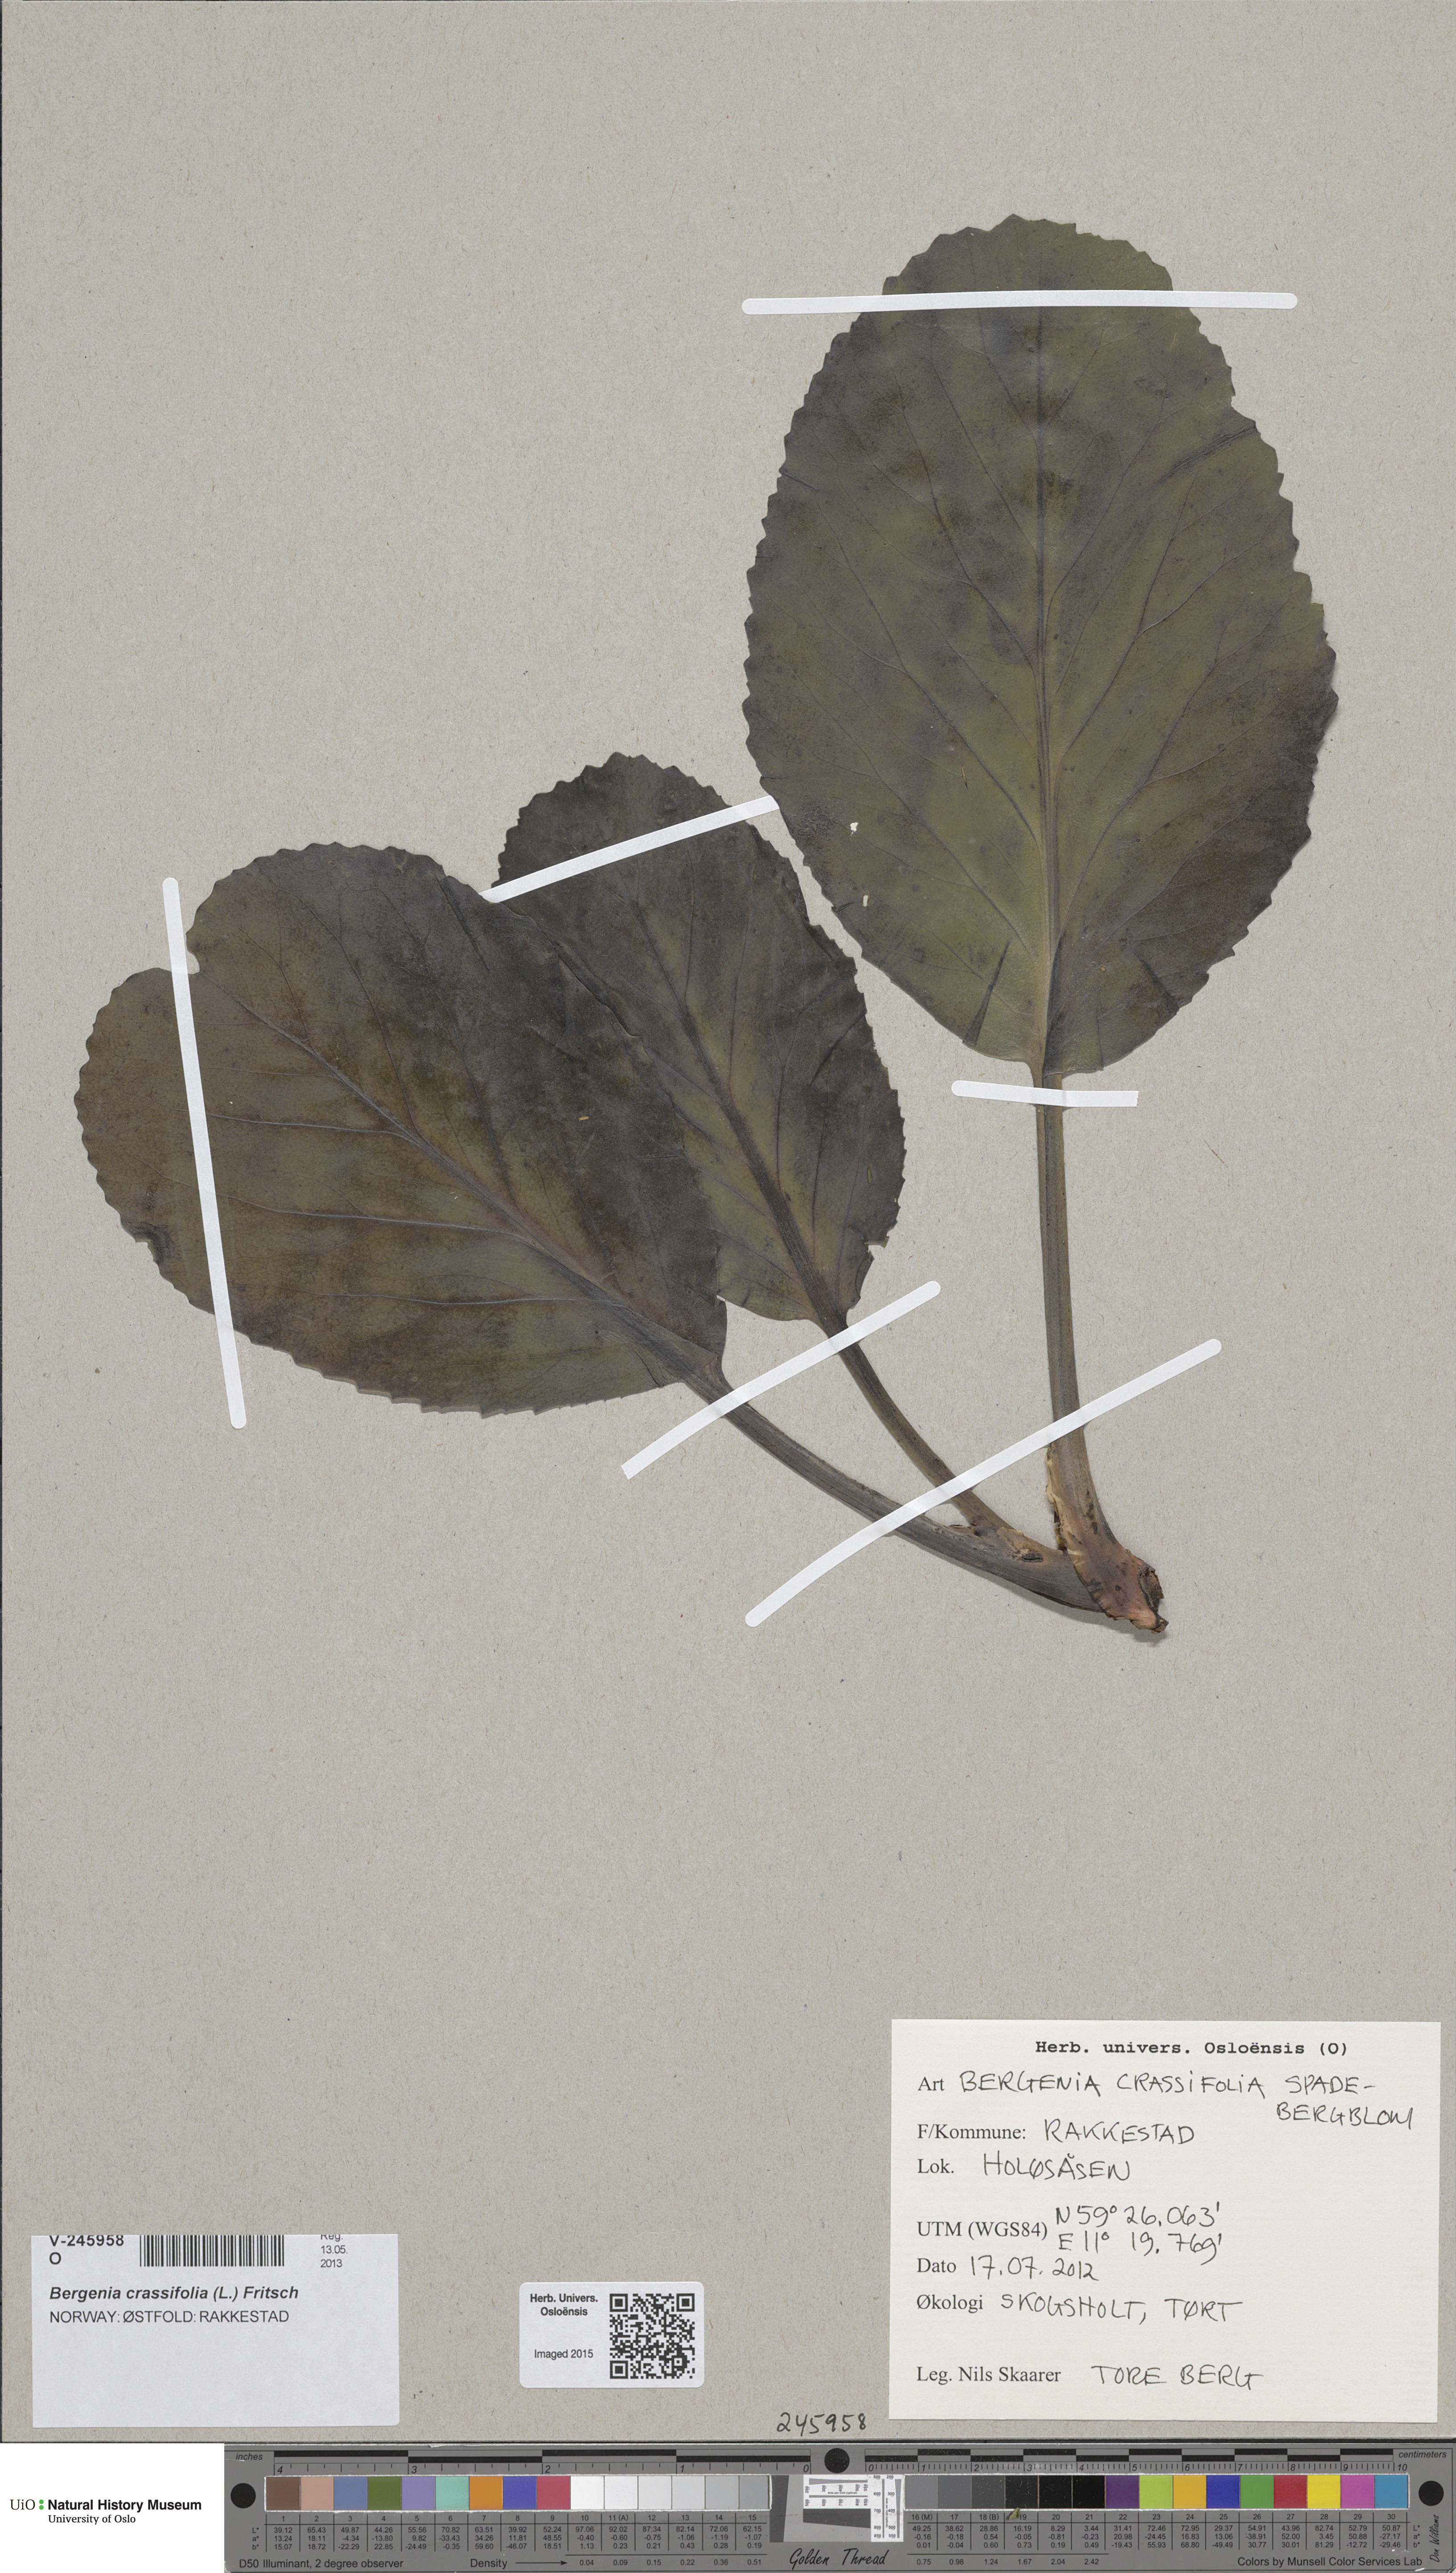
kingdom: Plantae
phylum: Tracheophyta
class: Magnoliopsida
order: Saxifragales
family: Saxifragaceae
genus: Bergenia
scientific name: Bergenia crassifolia
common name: Elephant-ears
